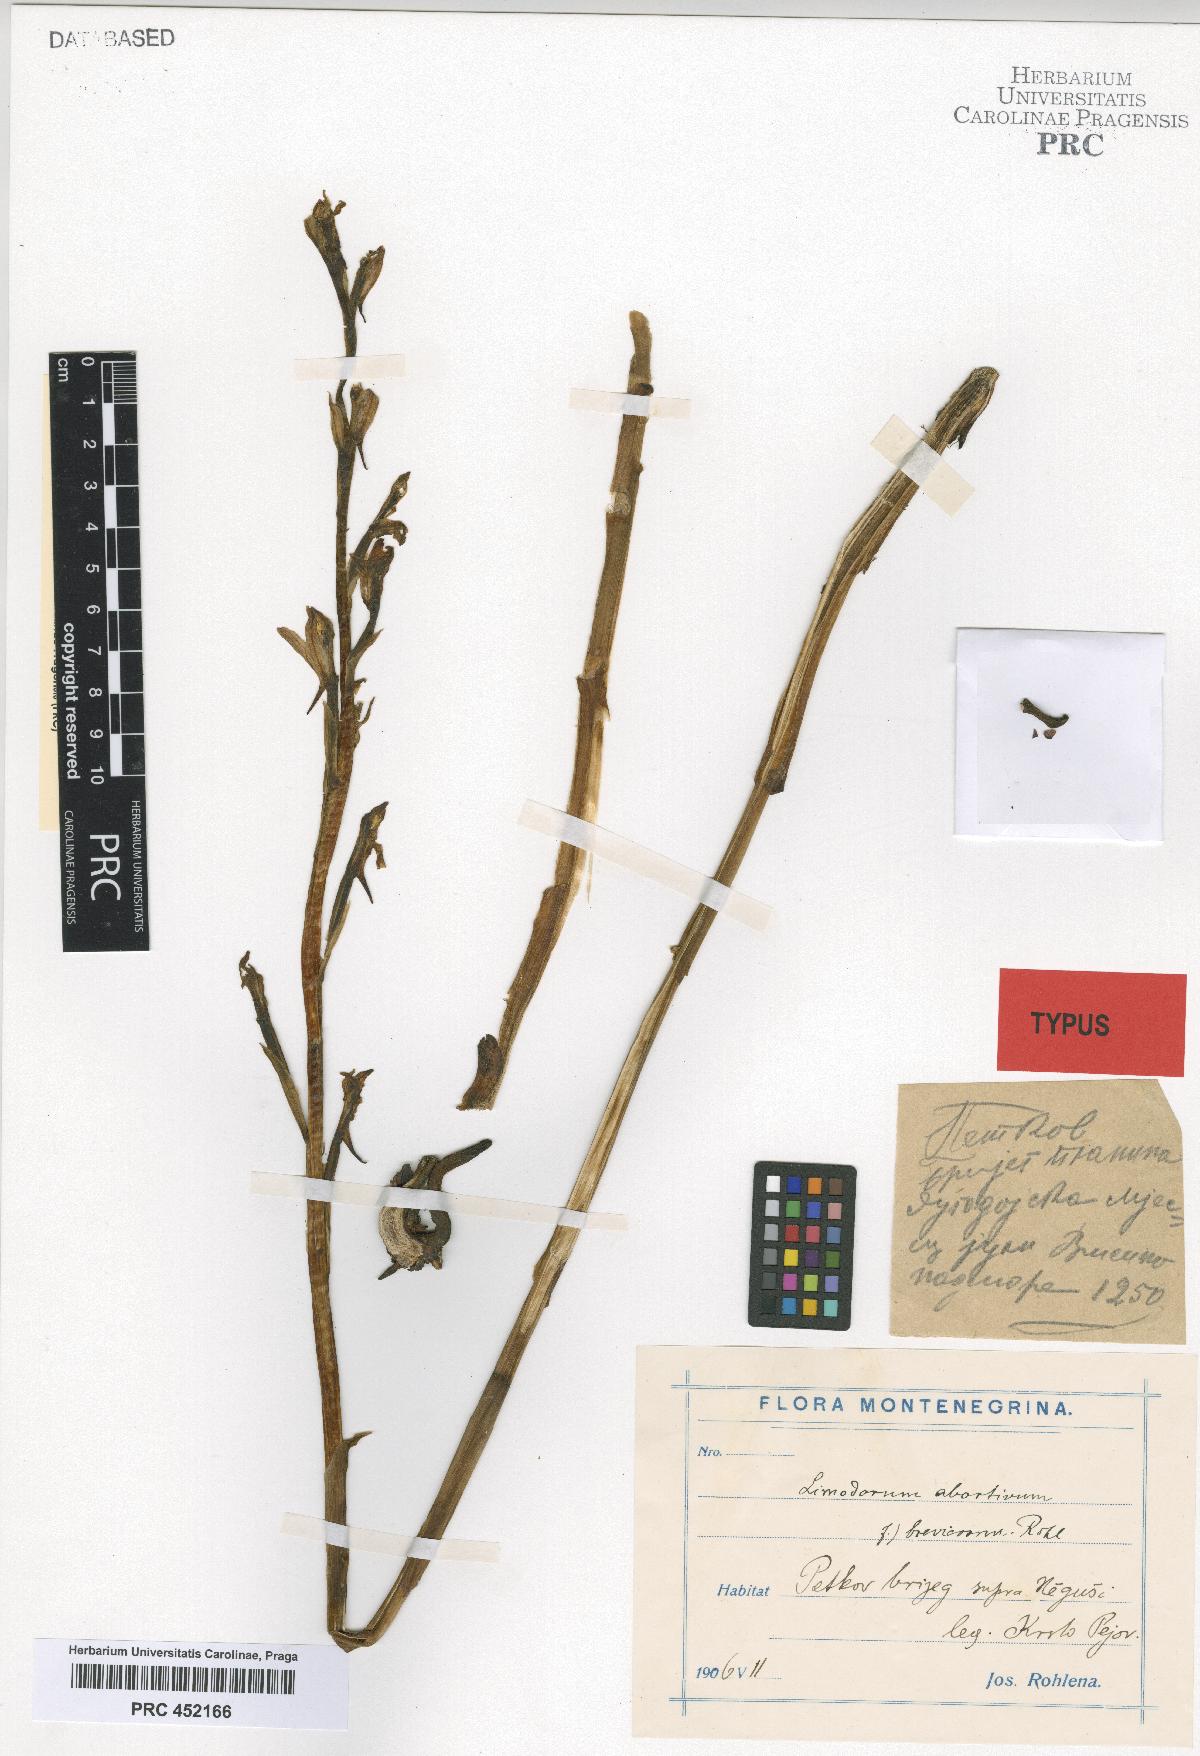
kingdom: Plantae
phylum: Tracheophyta
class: Liliopsida
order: Asparagales
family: Orchidaceae
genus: Limodorum
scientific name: Limodorum abortivum
